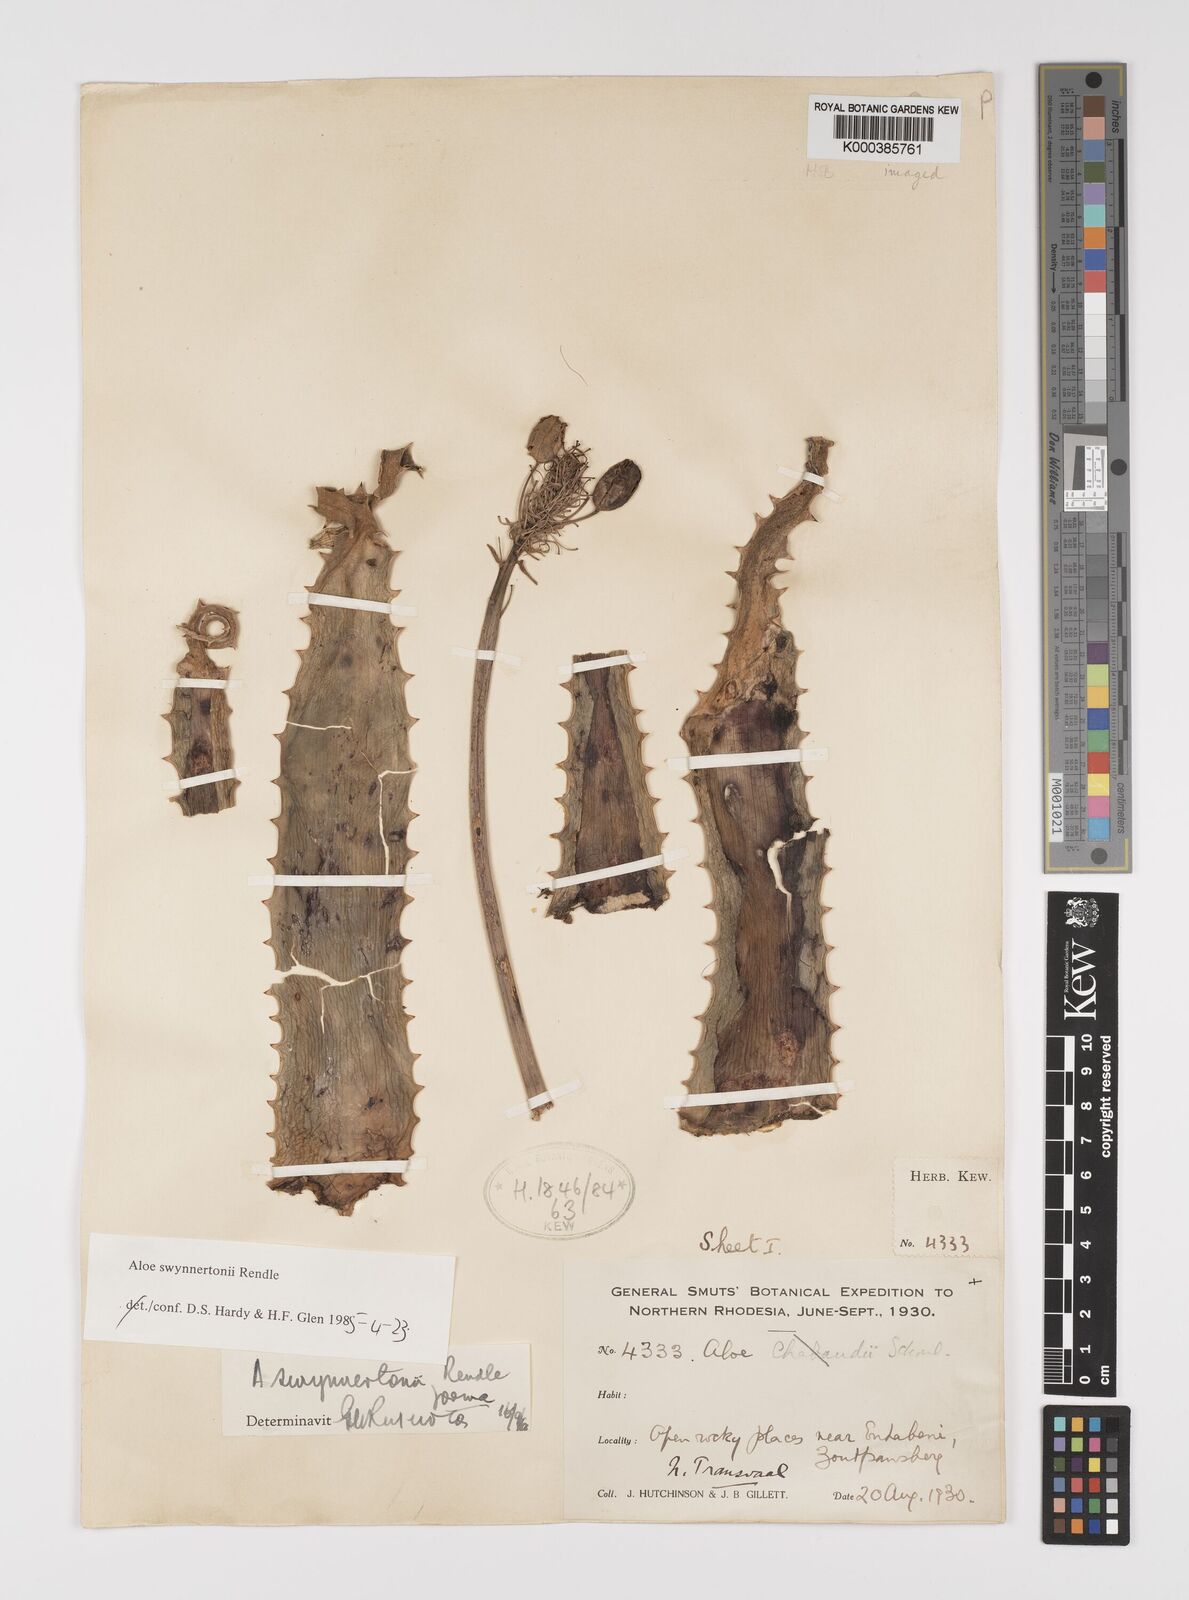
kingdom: Plantae
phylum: Tracheophyta
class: Liliopsida
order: Asparagales
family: Asphodelaceae
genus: Aloe
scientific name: Aloe swynnertonii
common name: Swynnerton's aloe
